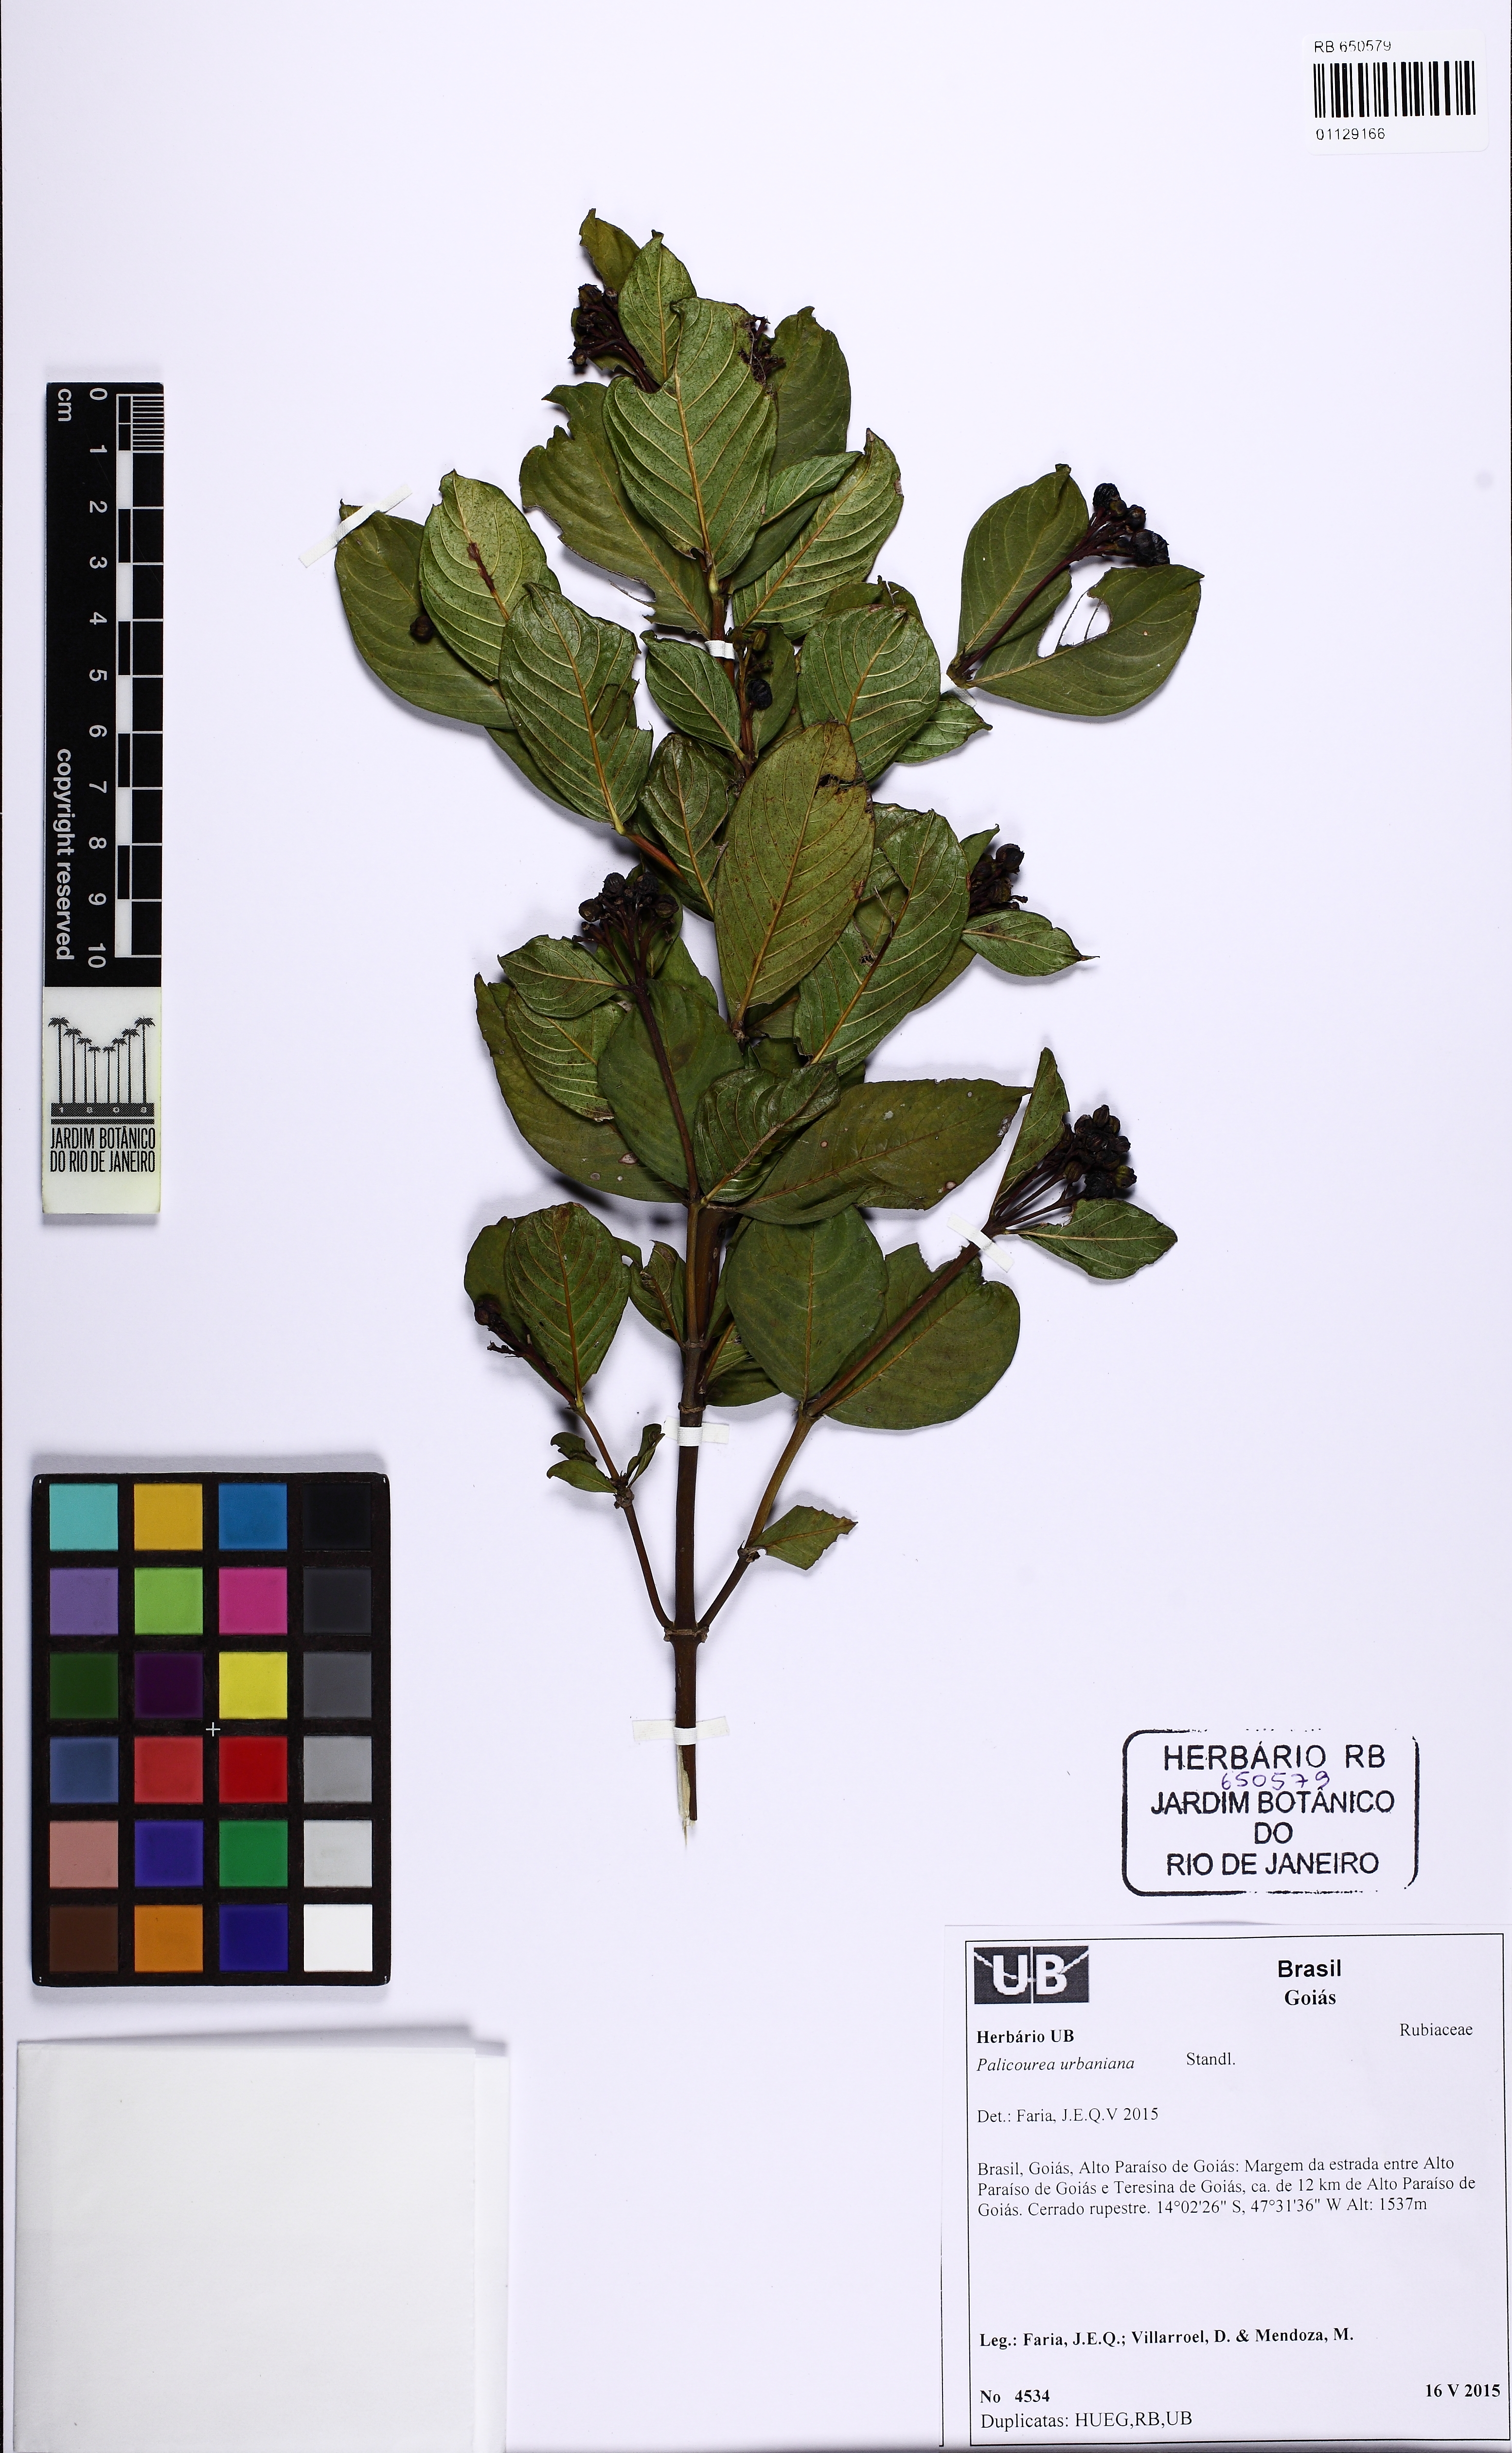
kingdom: Plantae
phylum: Tracheophyta
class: Magnoliopsida
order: Gentianales
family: Rubiaceae
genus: Palicourea
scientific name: Palicourea urbaniana
